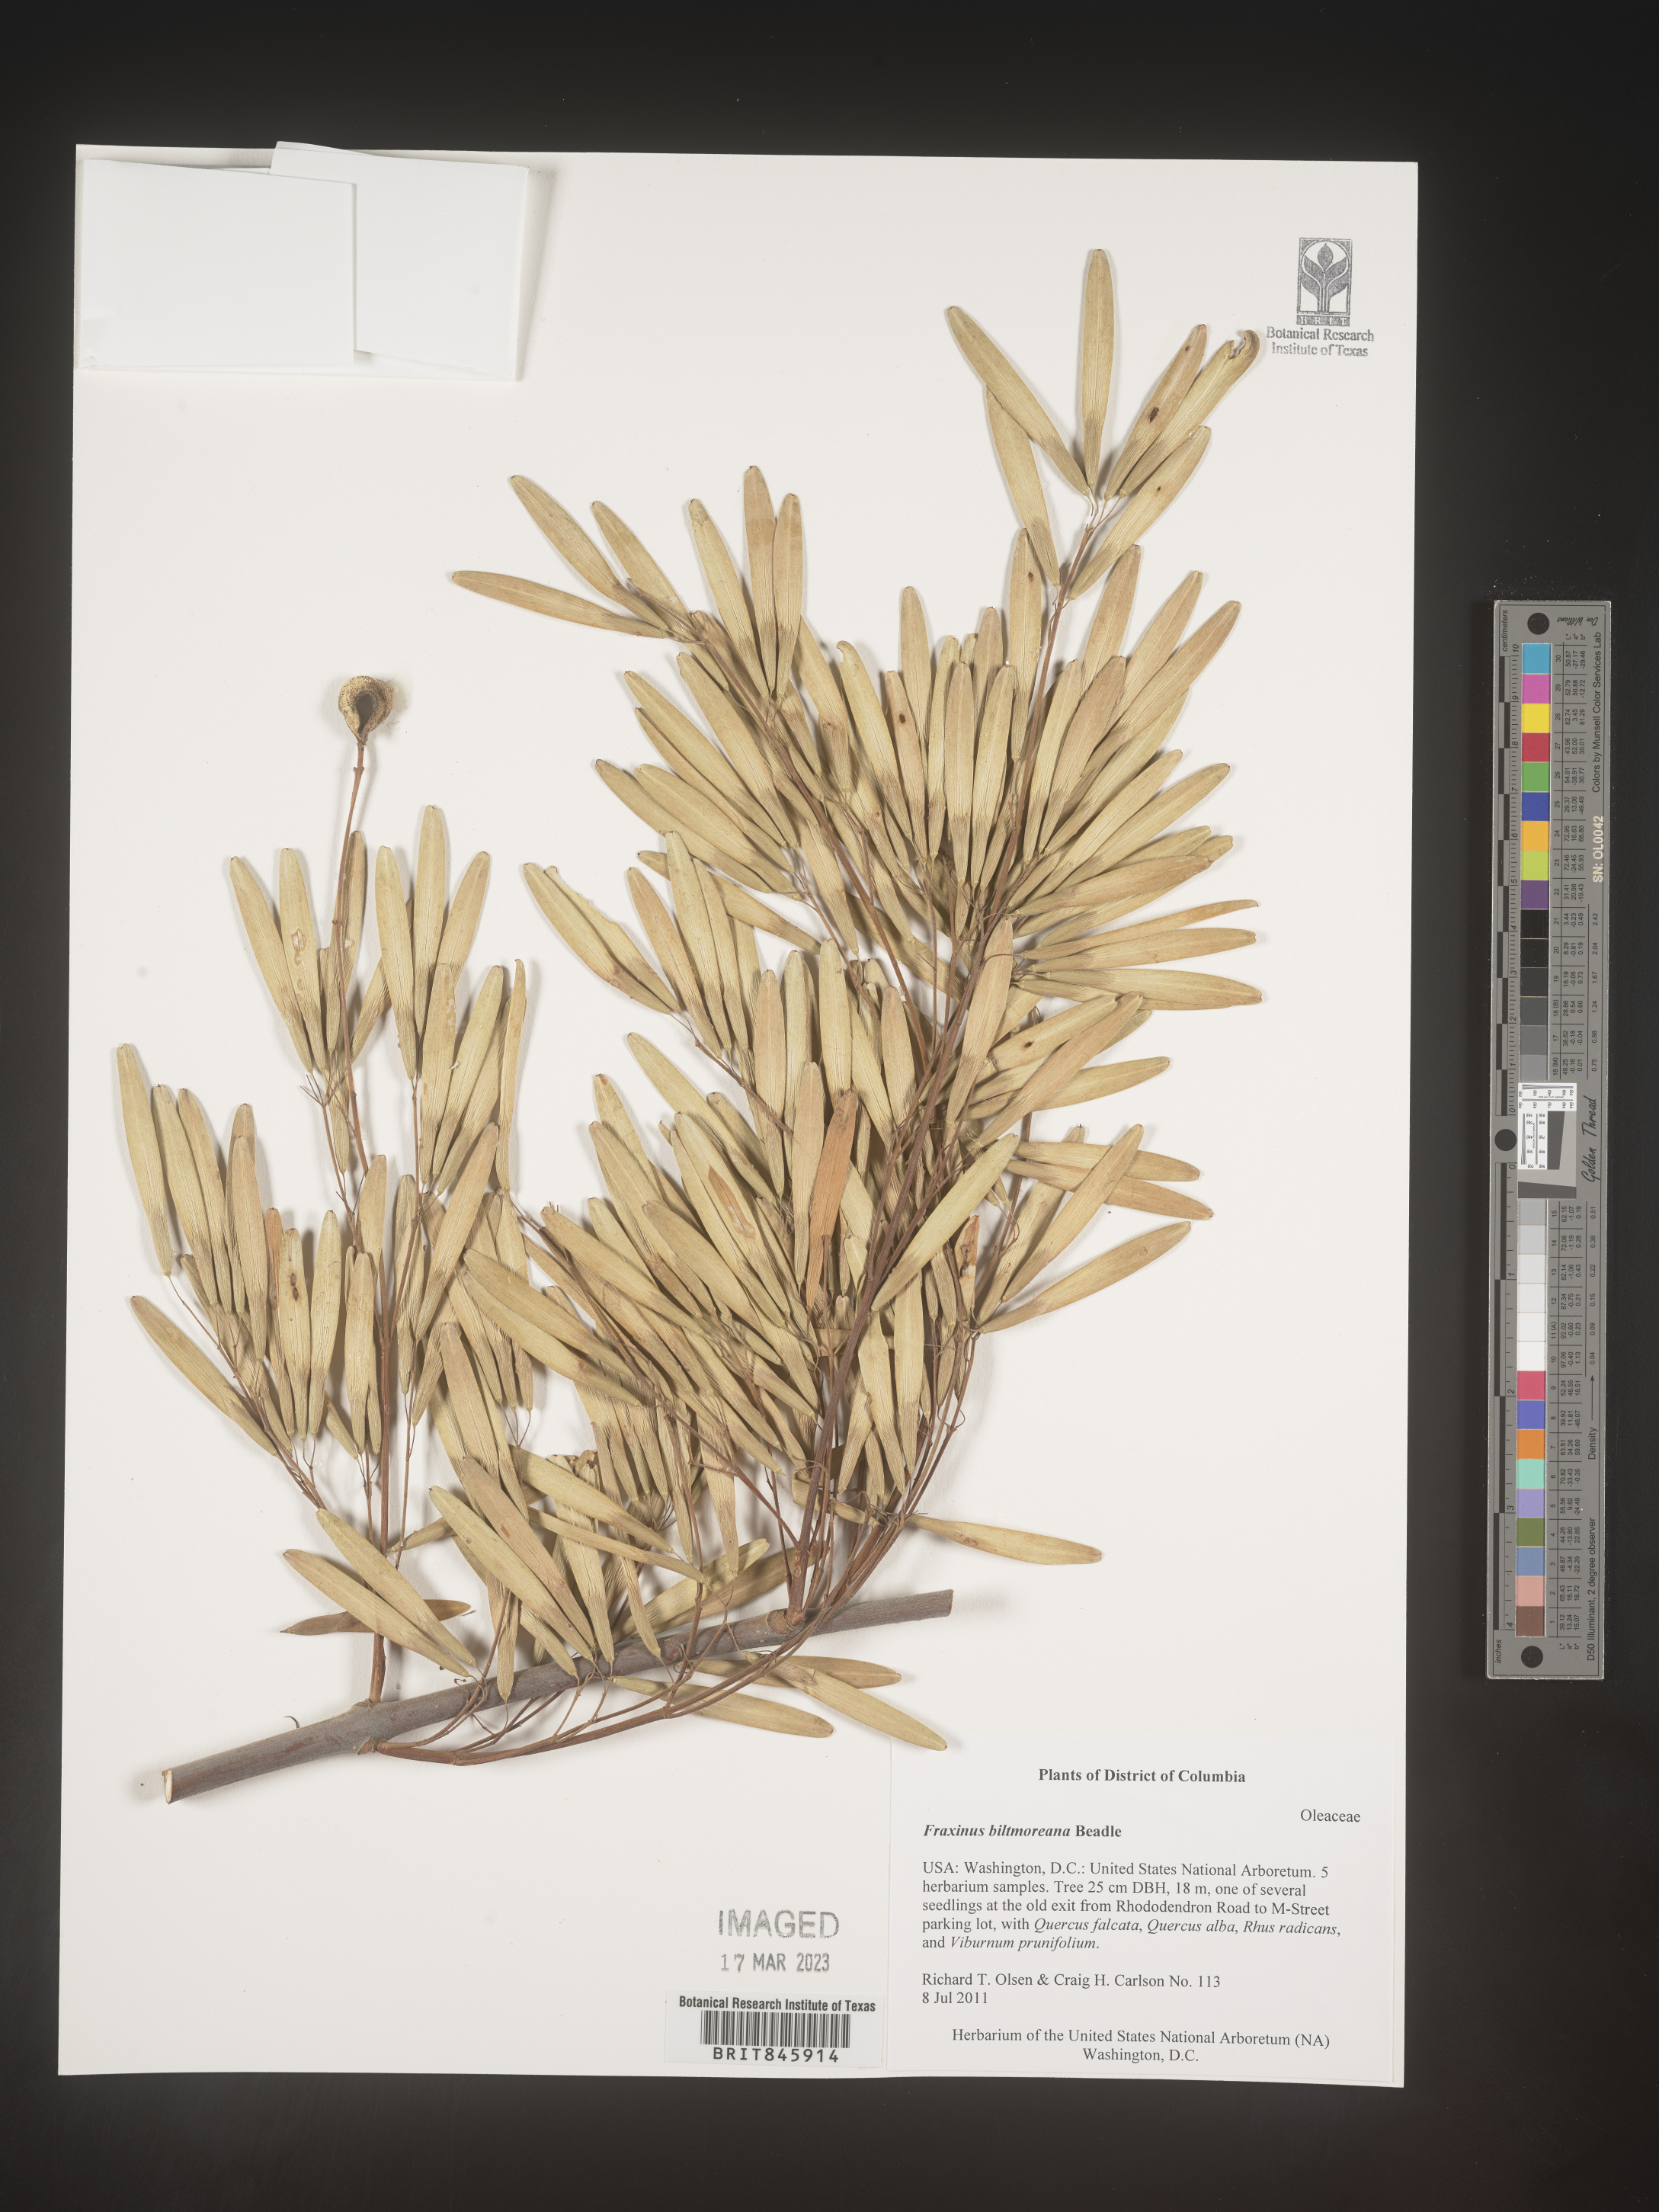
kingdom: Plantae
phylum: Tracheophyta
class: Magnoliopsida
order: Lamiales
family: Oleaceae
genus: Fraxinus
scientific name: Fraxinus americana
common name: White ash
